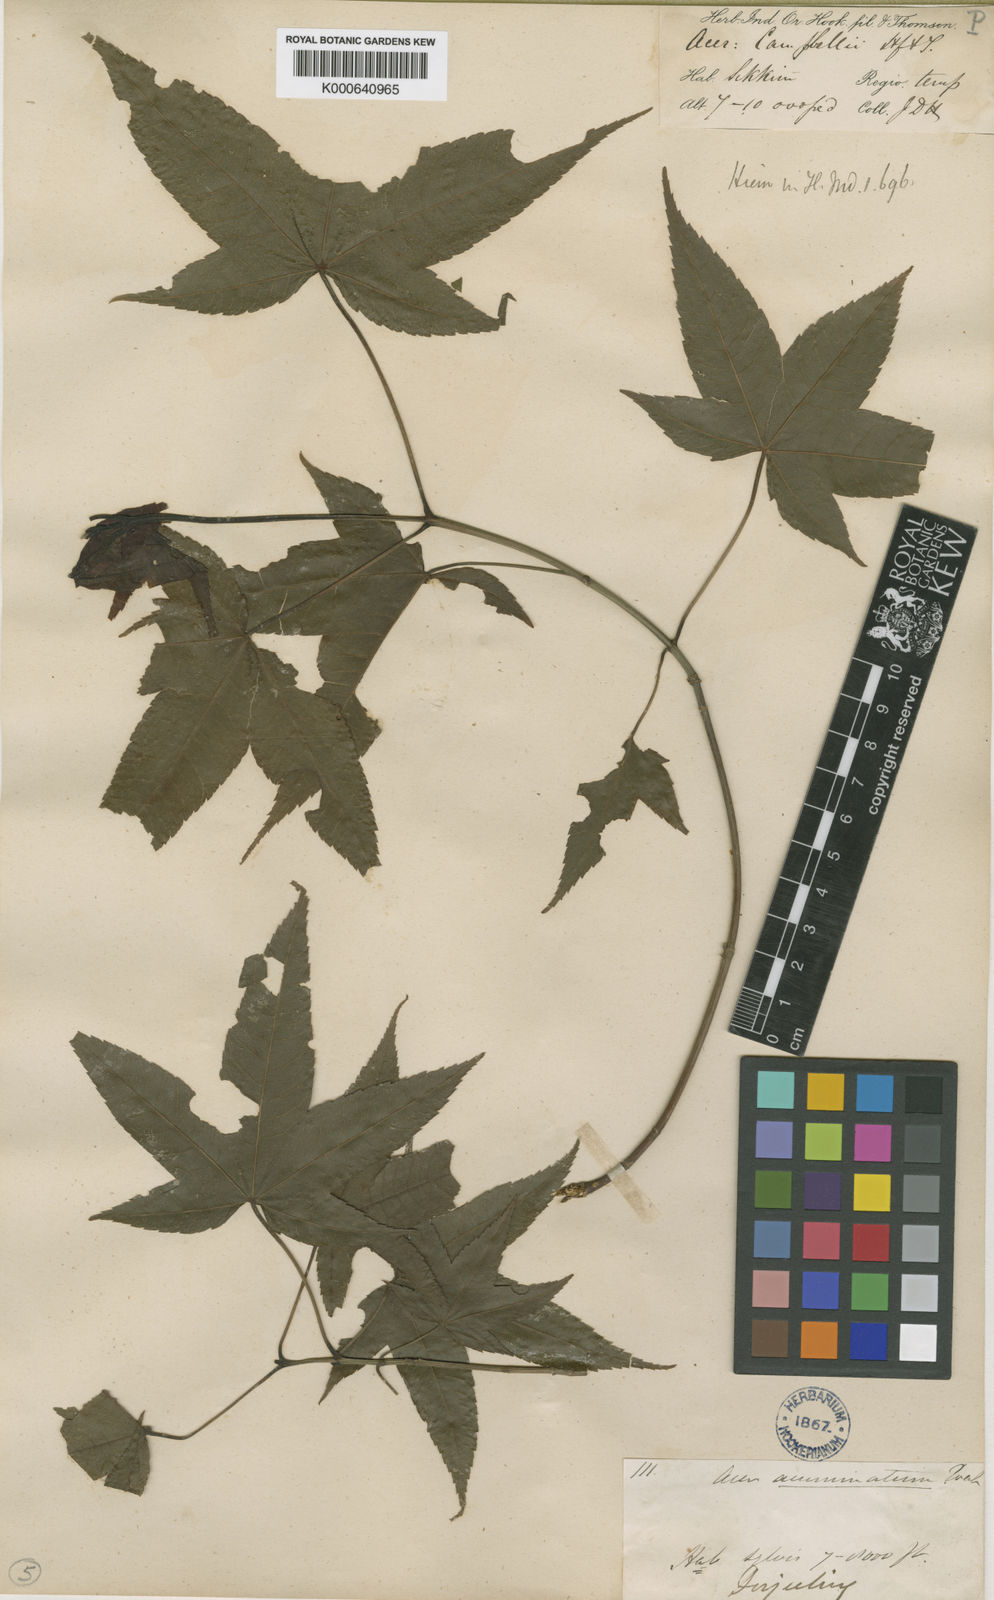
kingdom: Plantae
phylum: Tracheophyta
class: Magnoliopsida
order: Sapindales
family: Sapindaceae
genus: Acer
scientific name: Acer
